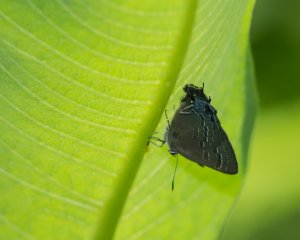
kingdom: Animalia
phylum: Arthropoda
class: Insecta
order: Lepidoptera
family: Lycaenidae
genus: Satyrium
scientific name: Satyrium calanus
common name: Banded Hairstreak
